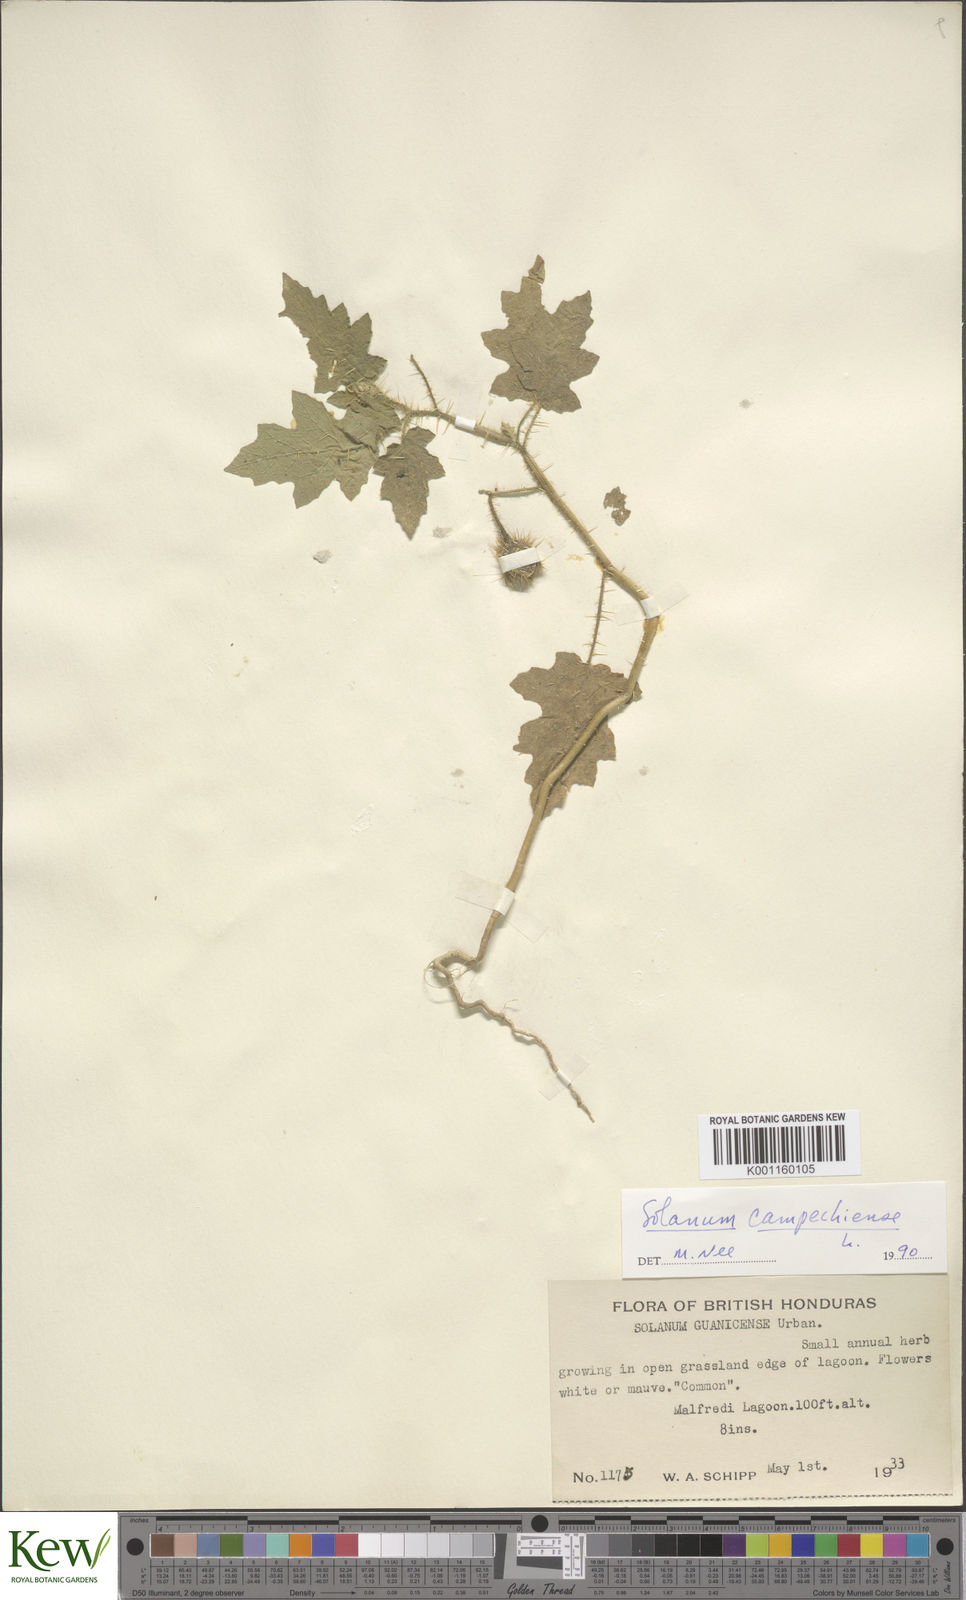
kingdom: Plantae
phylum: Tracheophyta
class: Magnoliopsida
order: Solanales
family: Solanaceae
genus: Solanum
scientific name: Solanum campechiense
